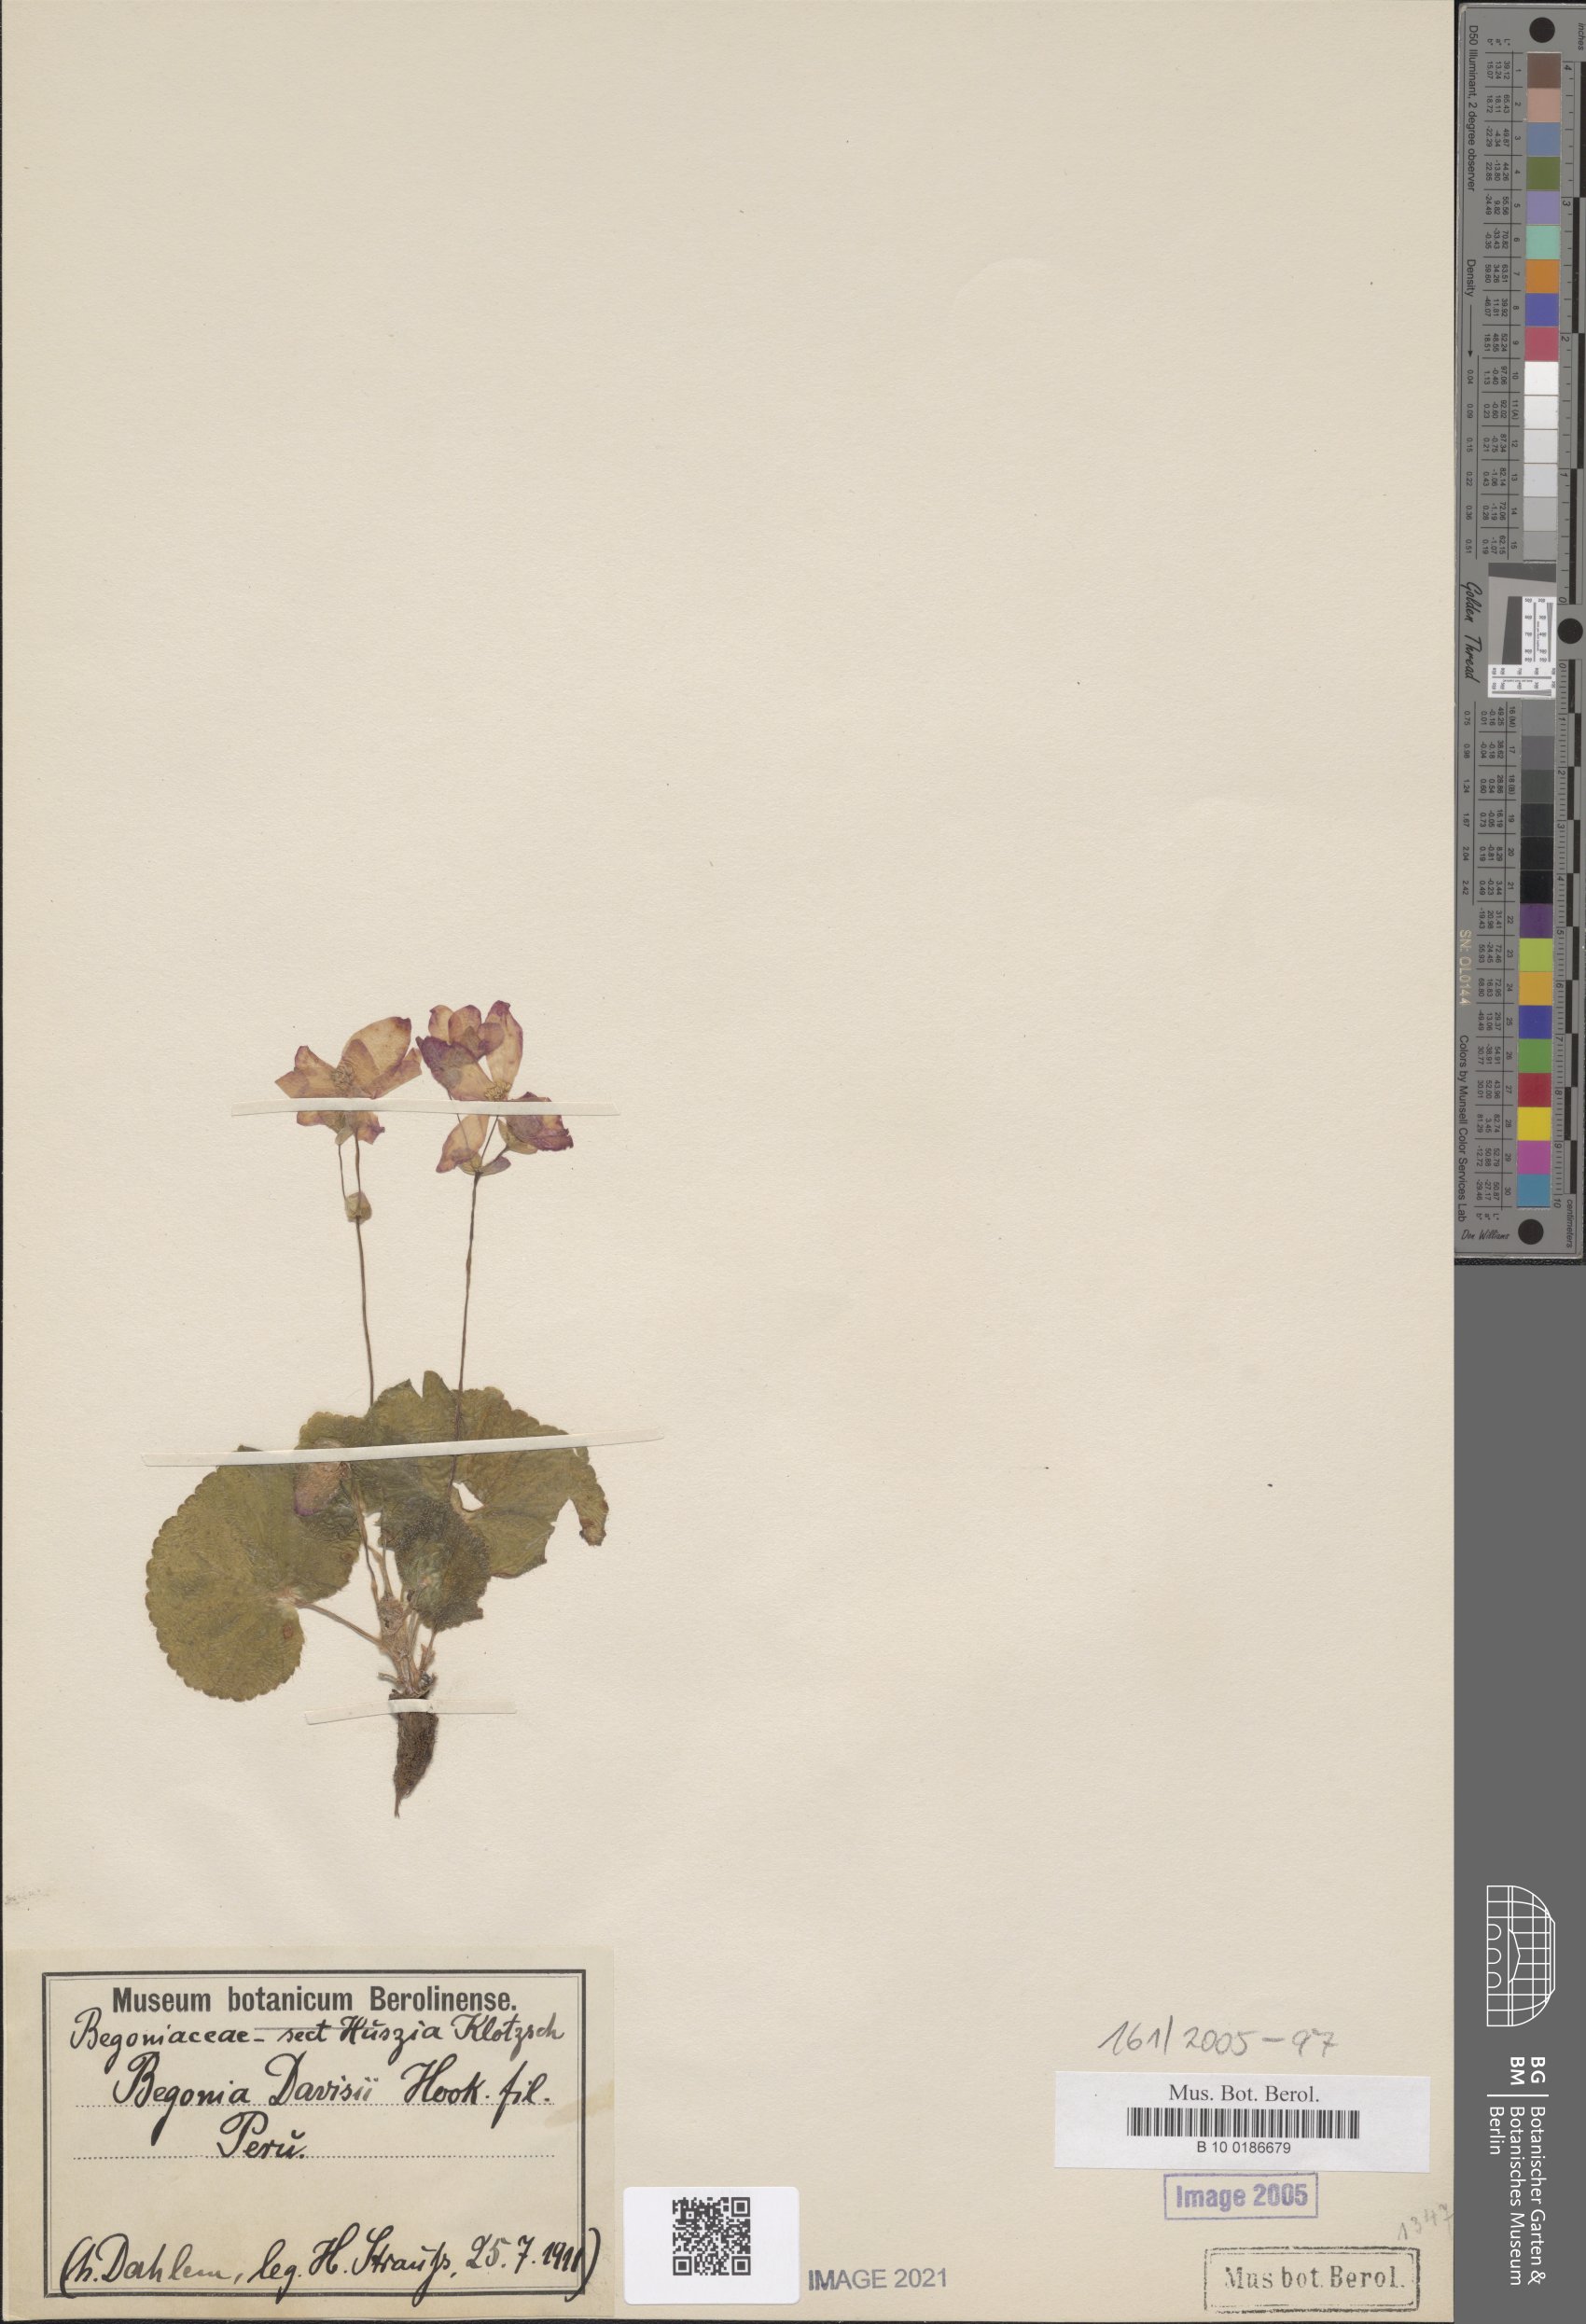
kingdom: Plantae
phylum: Tracheophyta
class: Magnoliopsida
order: Cucurbitales
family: Begoniaceae
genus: Begonia
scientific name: Begonia weddeliana
